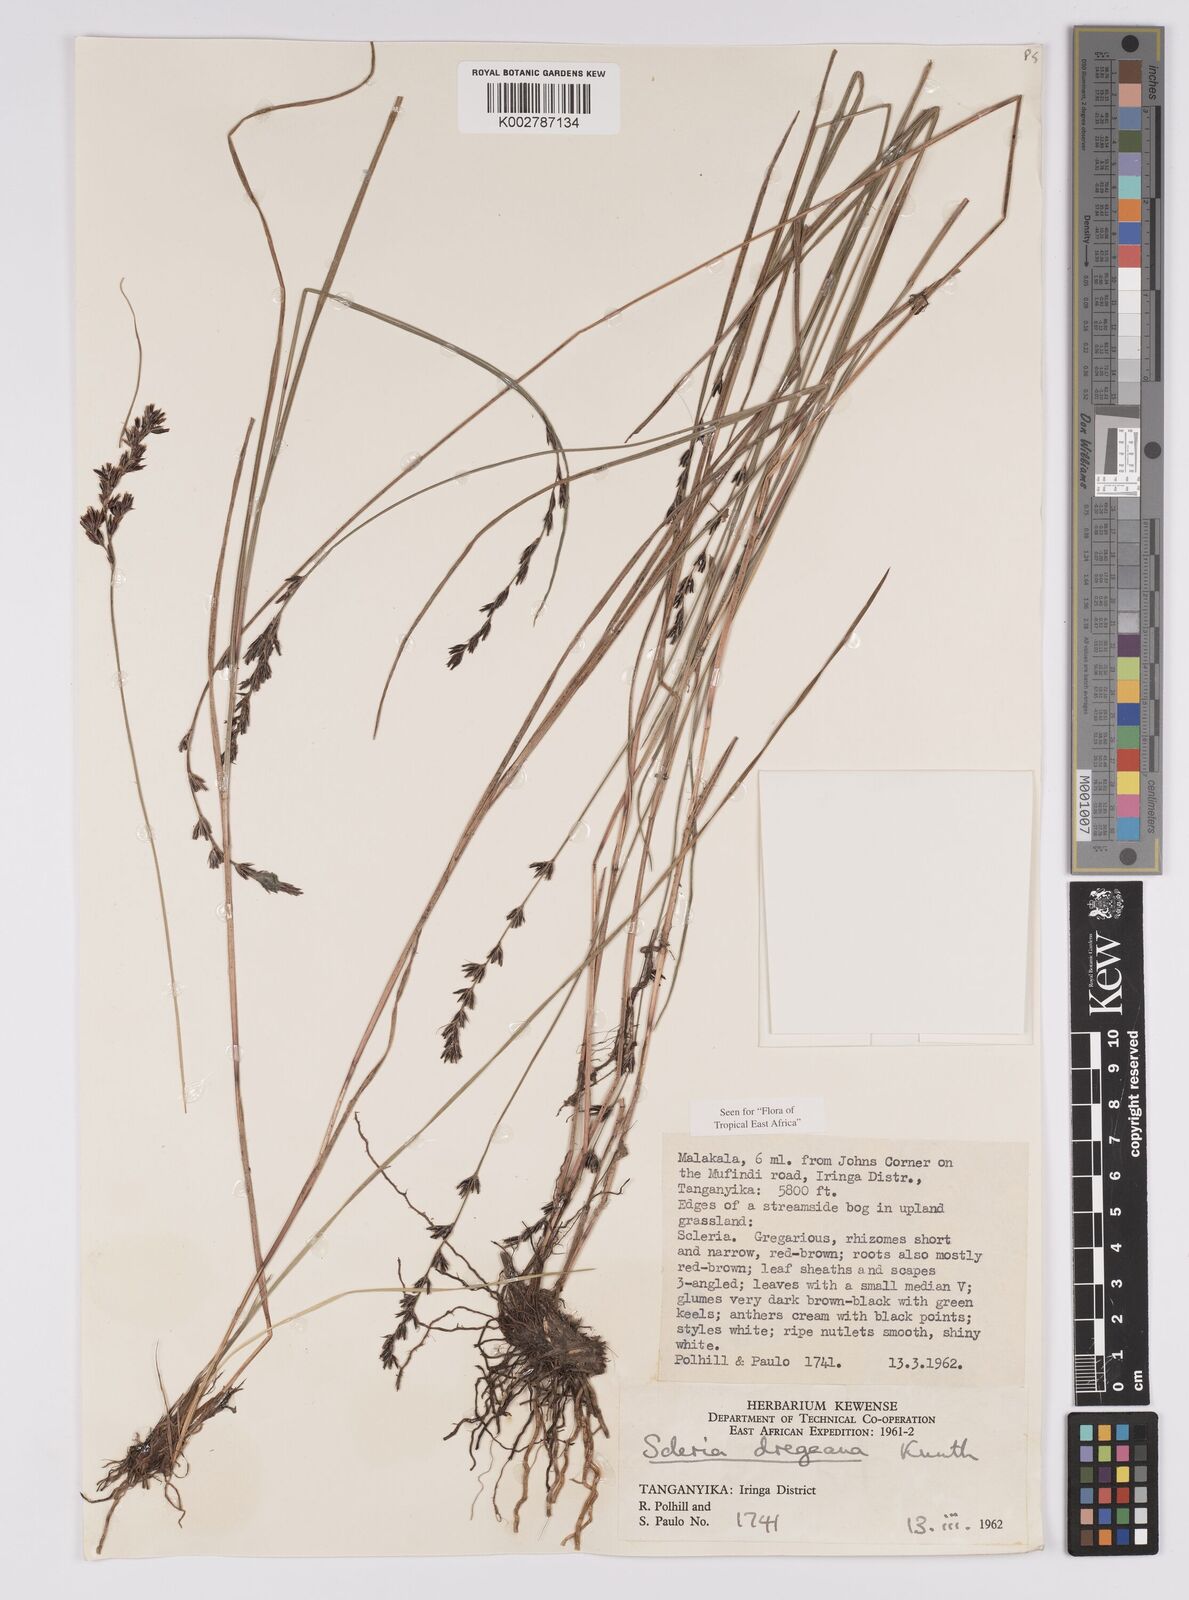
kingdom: Plantae
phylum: Tracheophyta
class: Liliopsida
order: Poales
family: Cyperaceae
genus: Scleria
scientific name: Scleria dregeana
